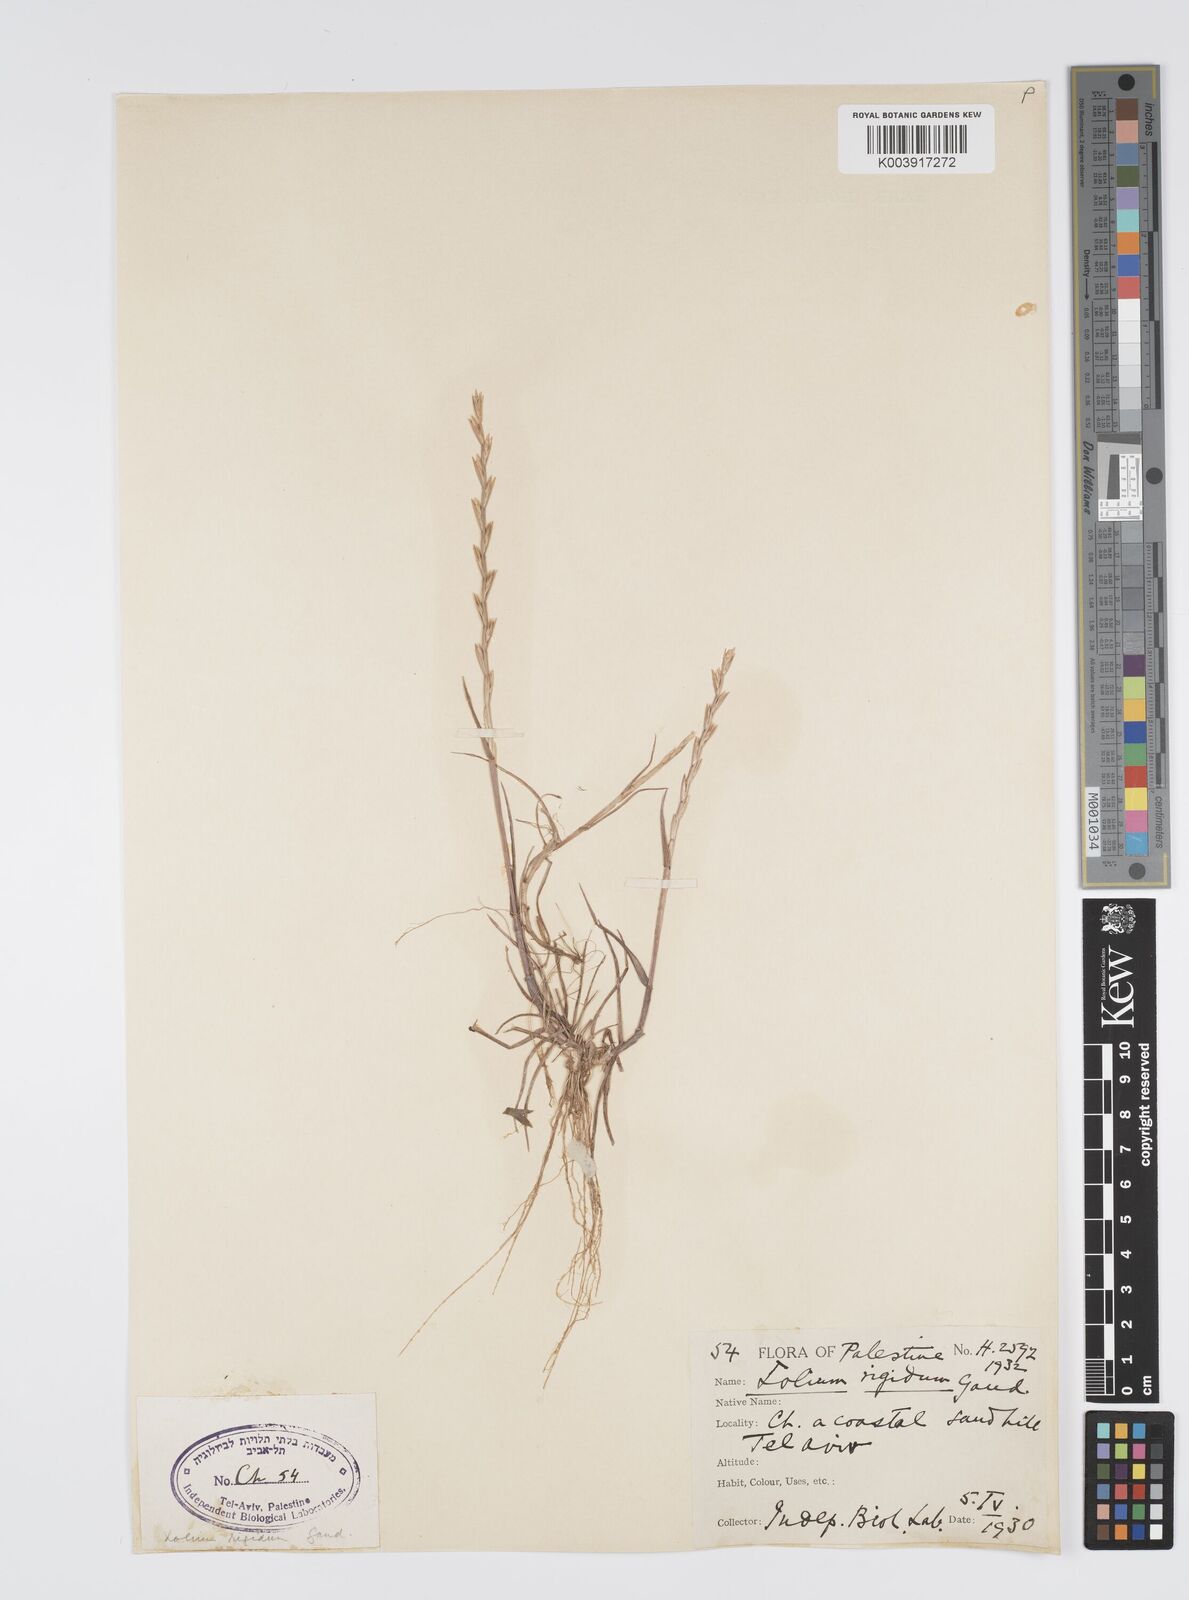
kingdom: Plantae
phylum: Tracheophyta
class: Liliopsida
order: Poales
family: Poaceae
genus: Lolium
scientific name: Lolium rigidum
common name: Wimmera ryegrass
